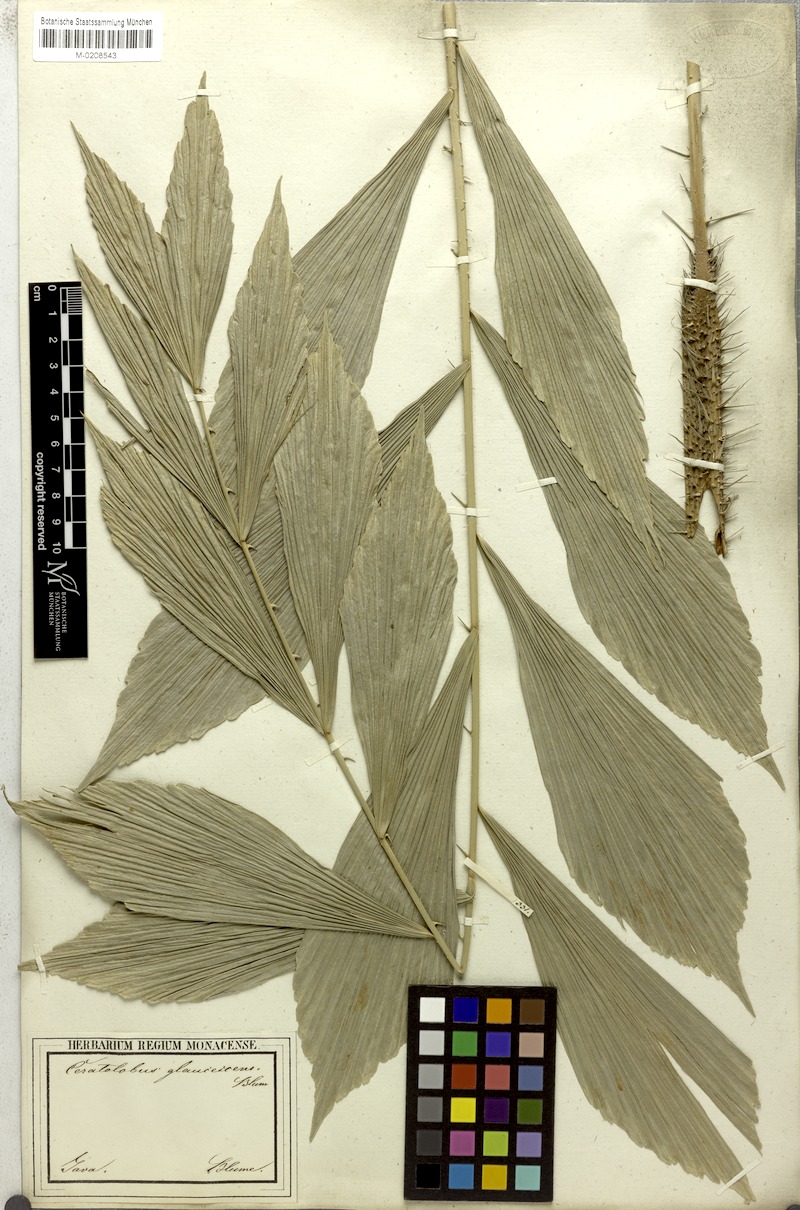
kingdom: Plantae
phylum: Tracheophyta
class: Liliopsida
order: Arecales
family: Arecaceae
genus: Calamus
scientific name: Calamus glaucescens
